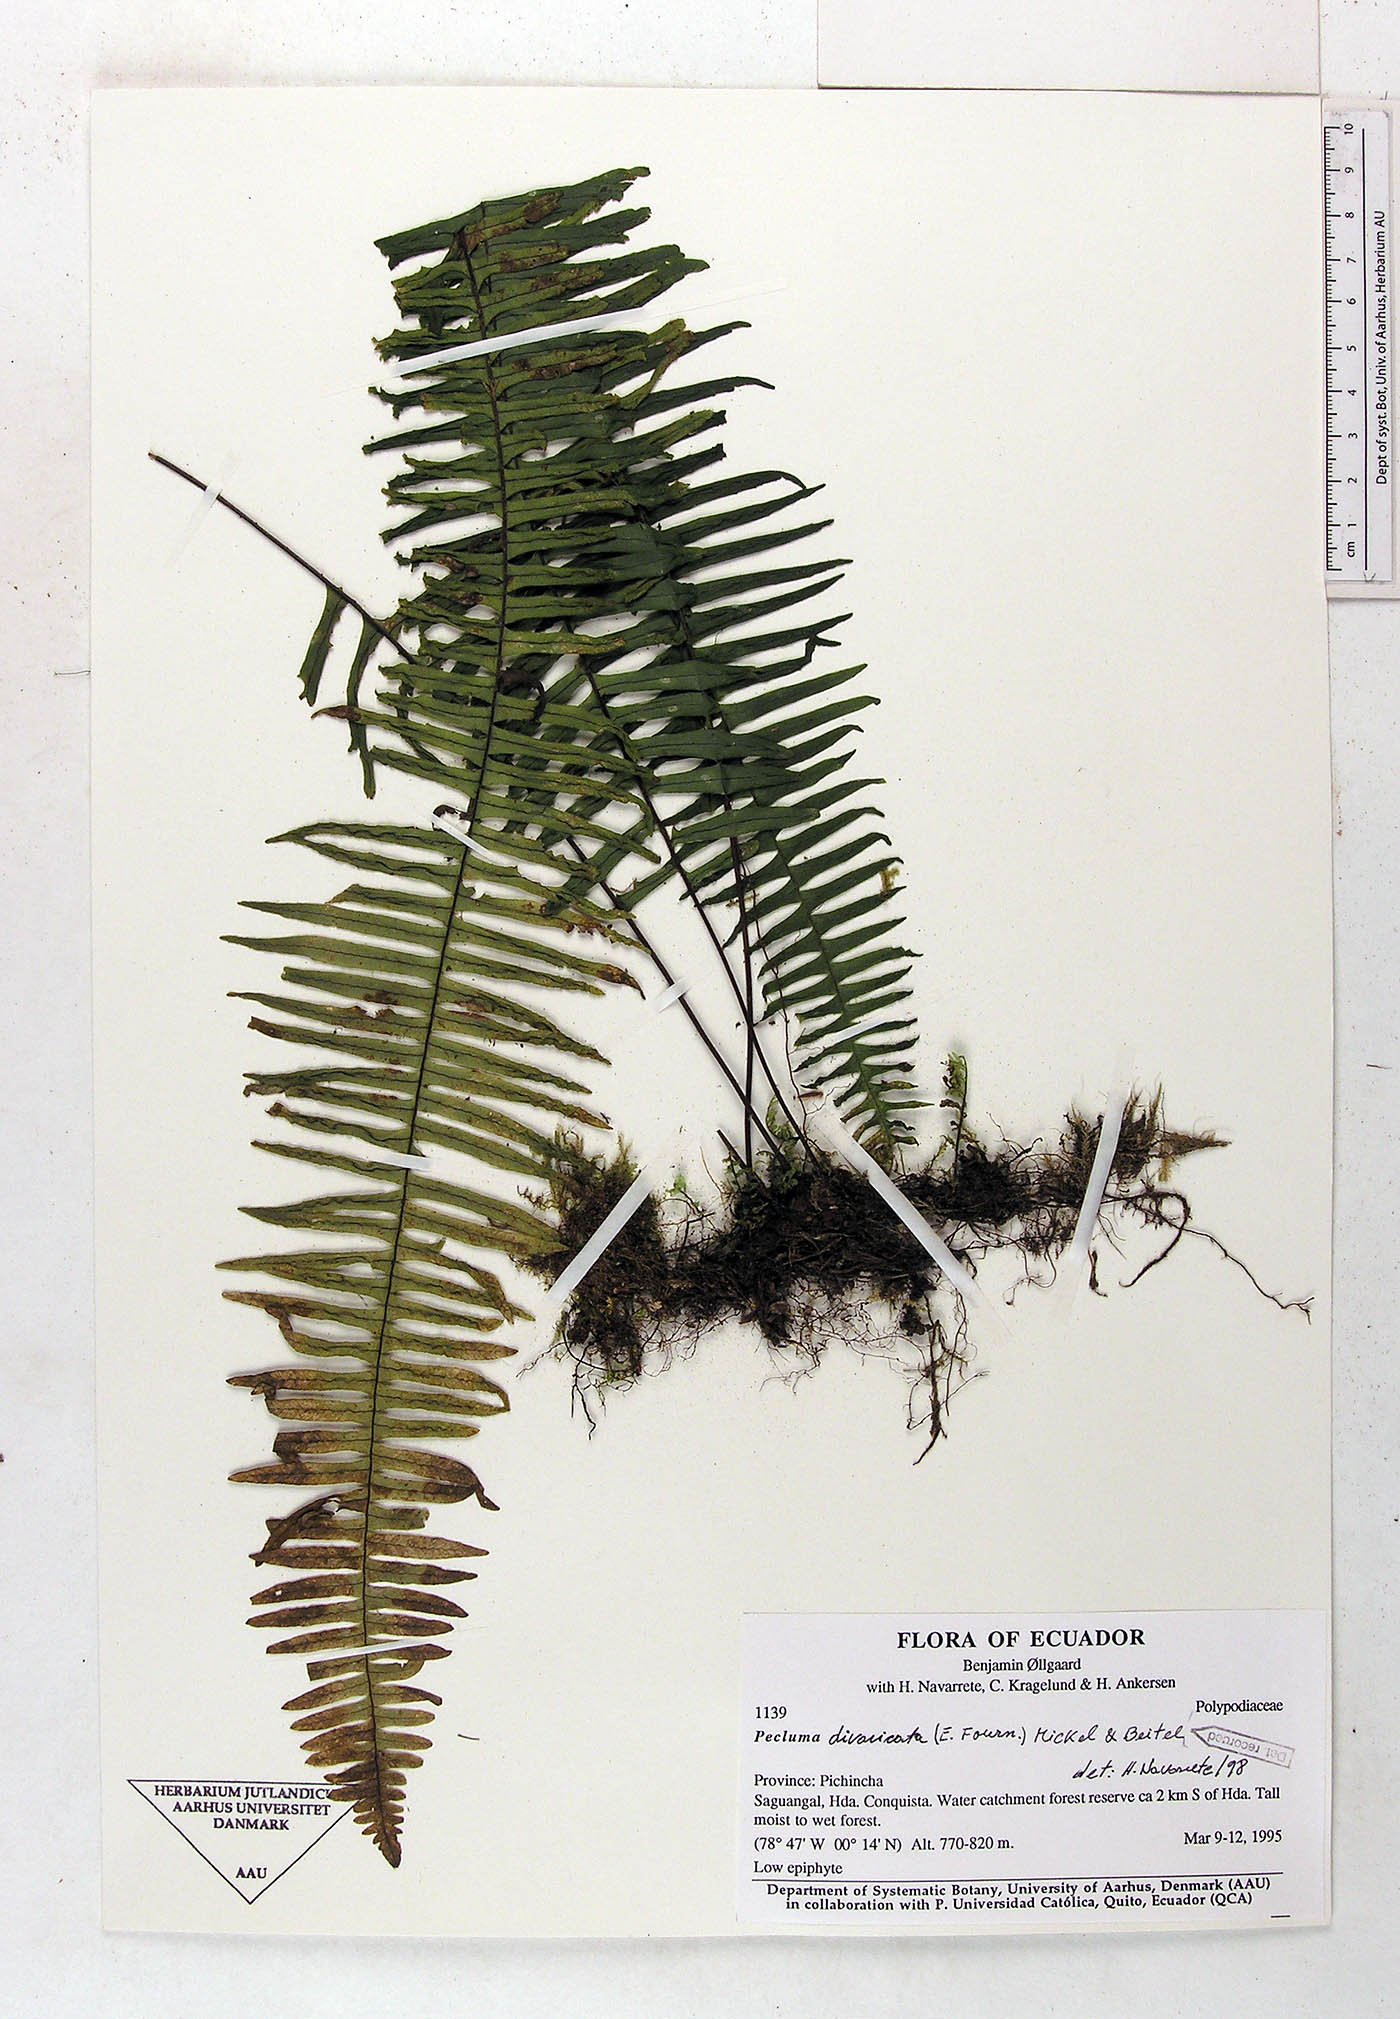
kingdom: Plantae
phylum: Tracheophyta
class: Polypodiopsida
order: Polypodiales
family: Polypodiaceae
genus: Pecluma
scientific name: Pecluma divaricata
